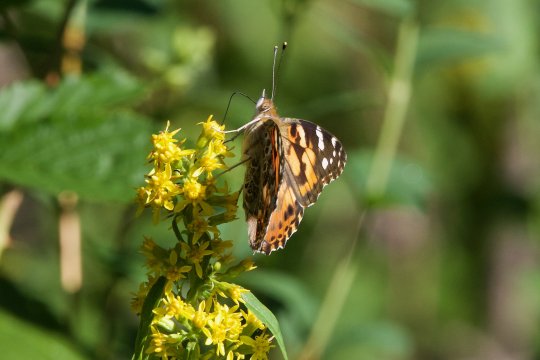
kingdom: Animalia
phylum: Arthropoda
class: Insecta
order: Lepidoptera
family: Nymphalidae
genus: Vanessa
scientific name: Vanessa cardui
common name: Painted Lady
